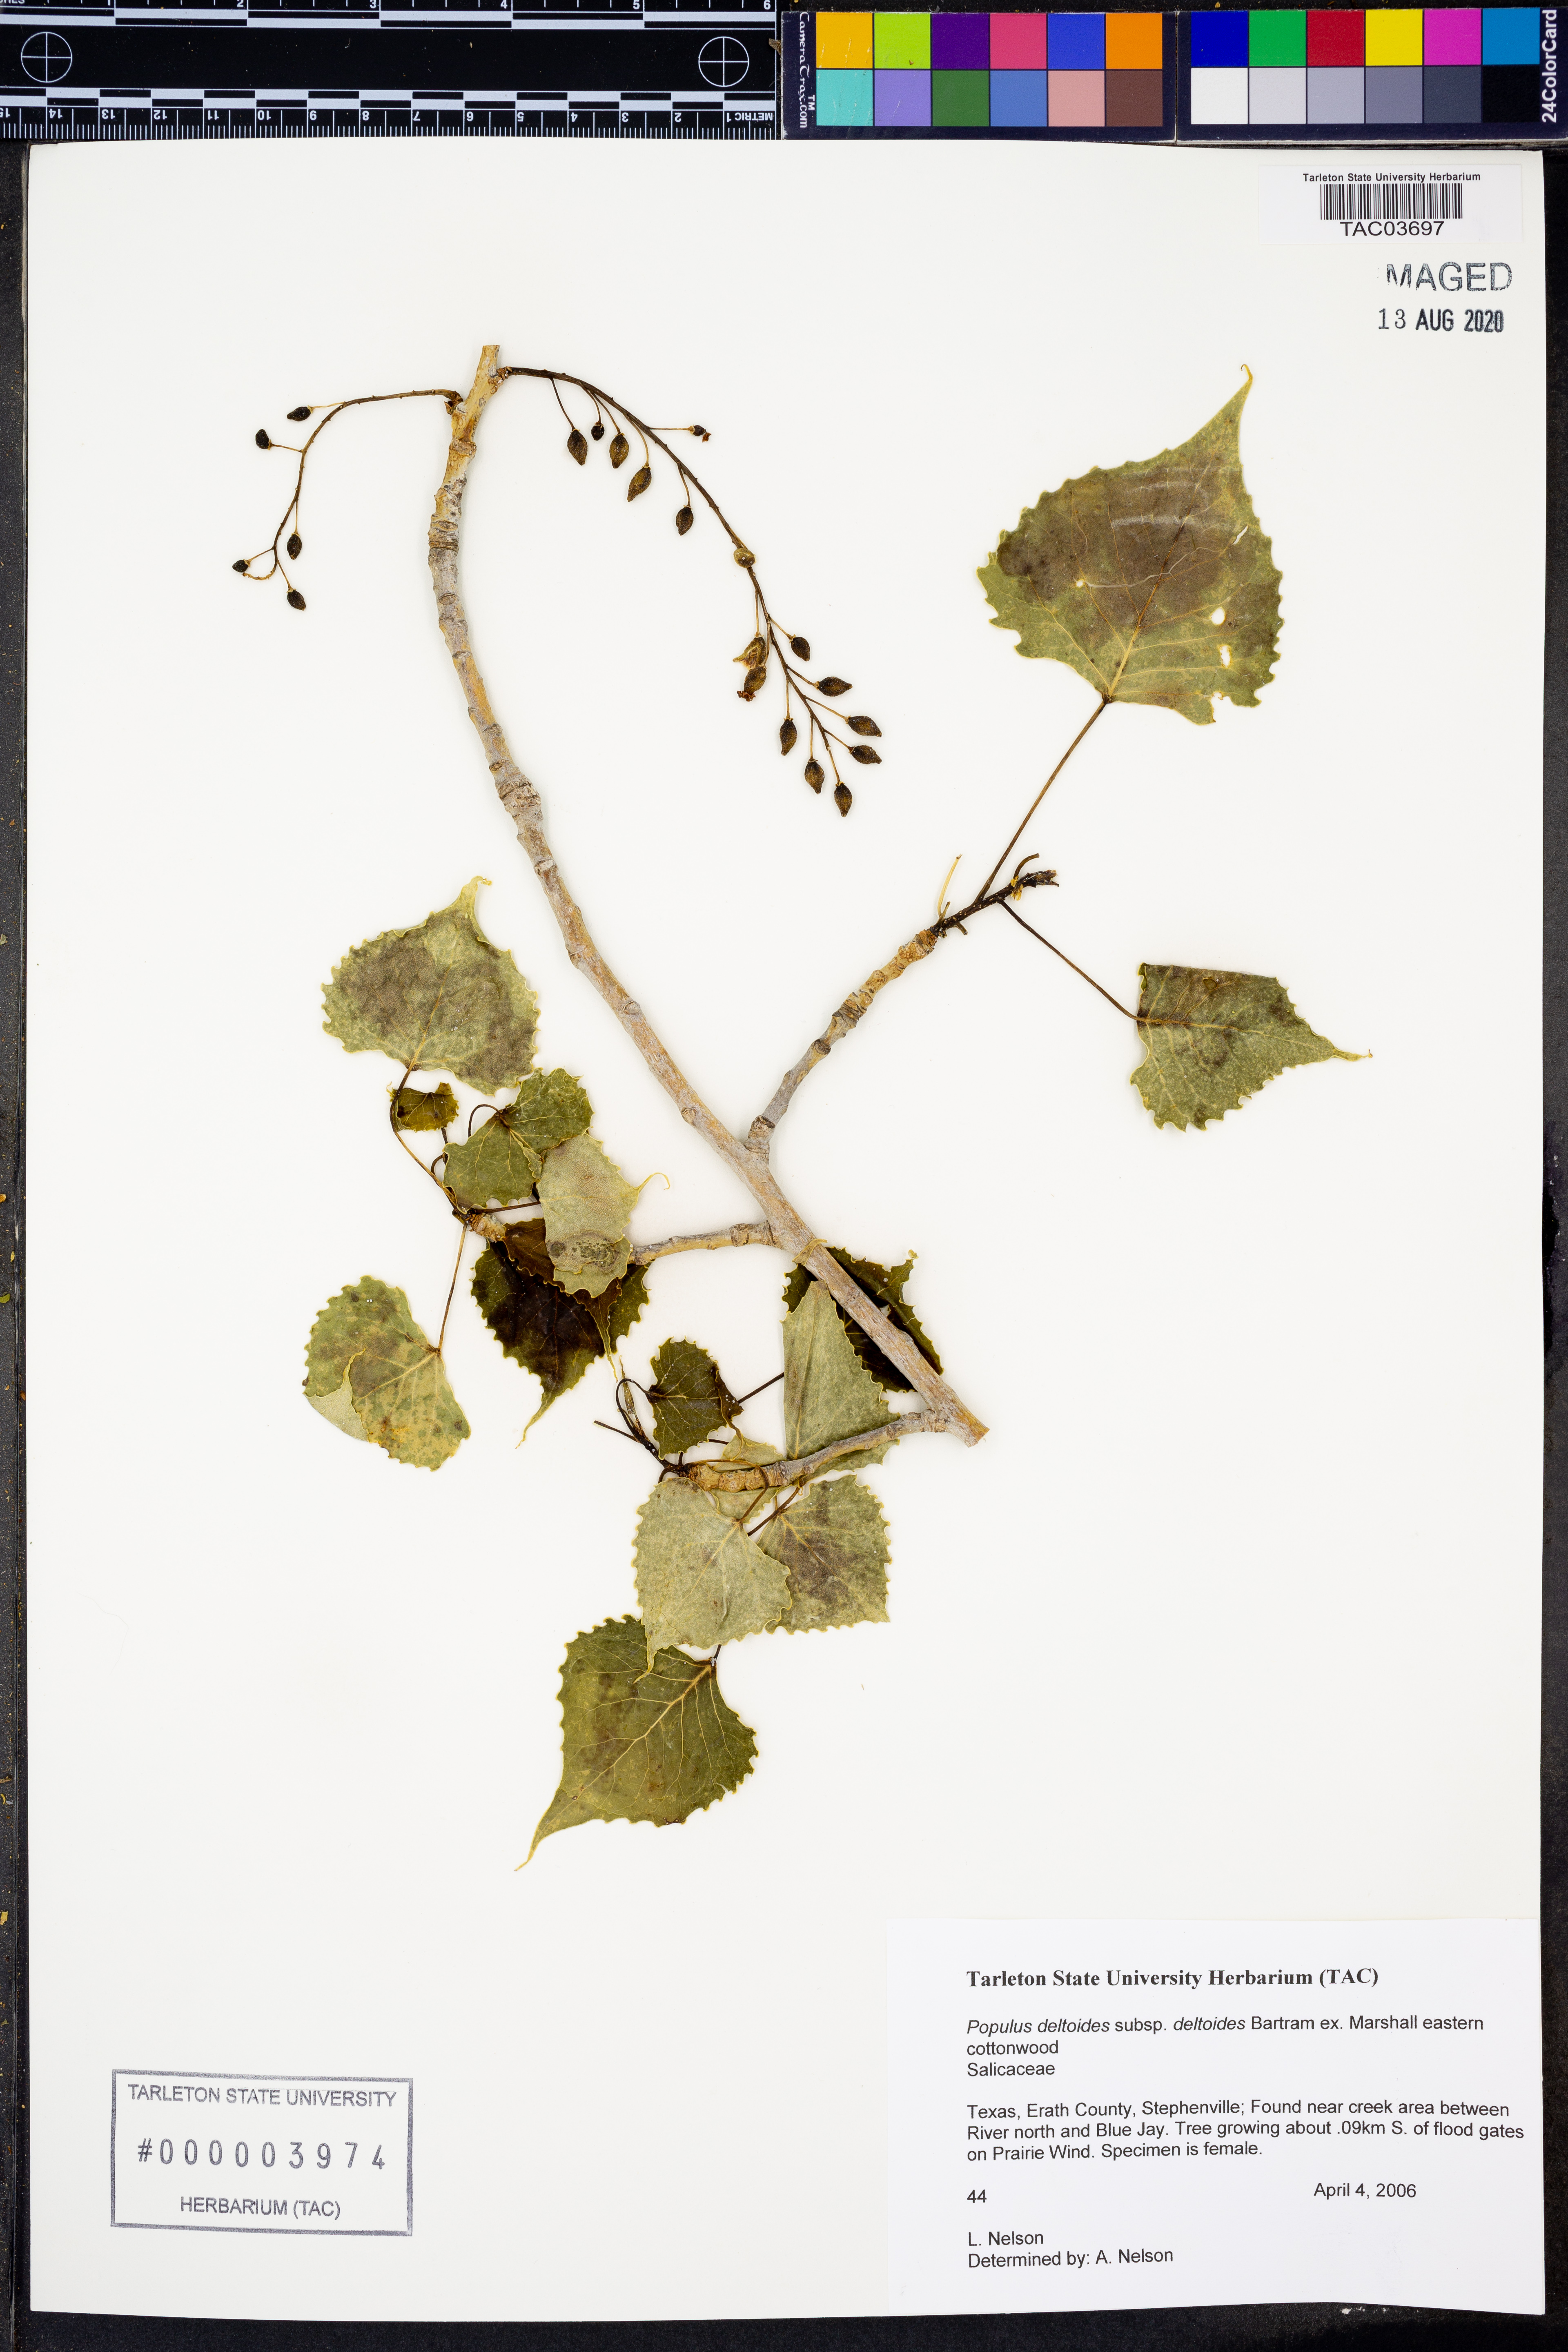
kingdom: Plantae
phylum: Tracheophyta
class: Magnoliopsida
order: Malpighiales
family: Salicaceae
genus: Populus
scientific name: Populus deltoides
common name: Eastern cottonwood
